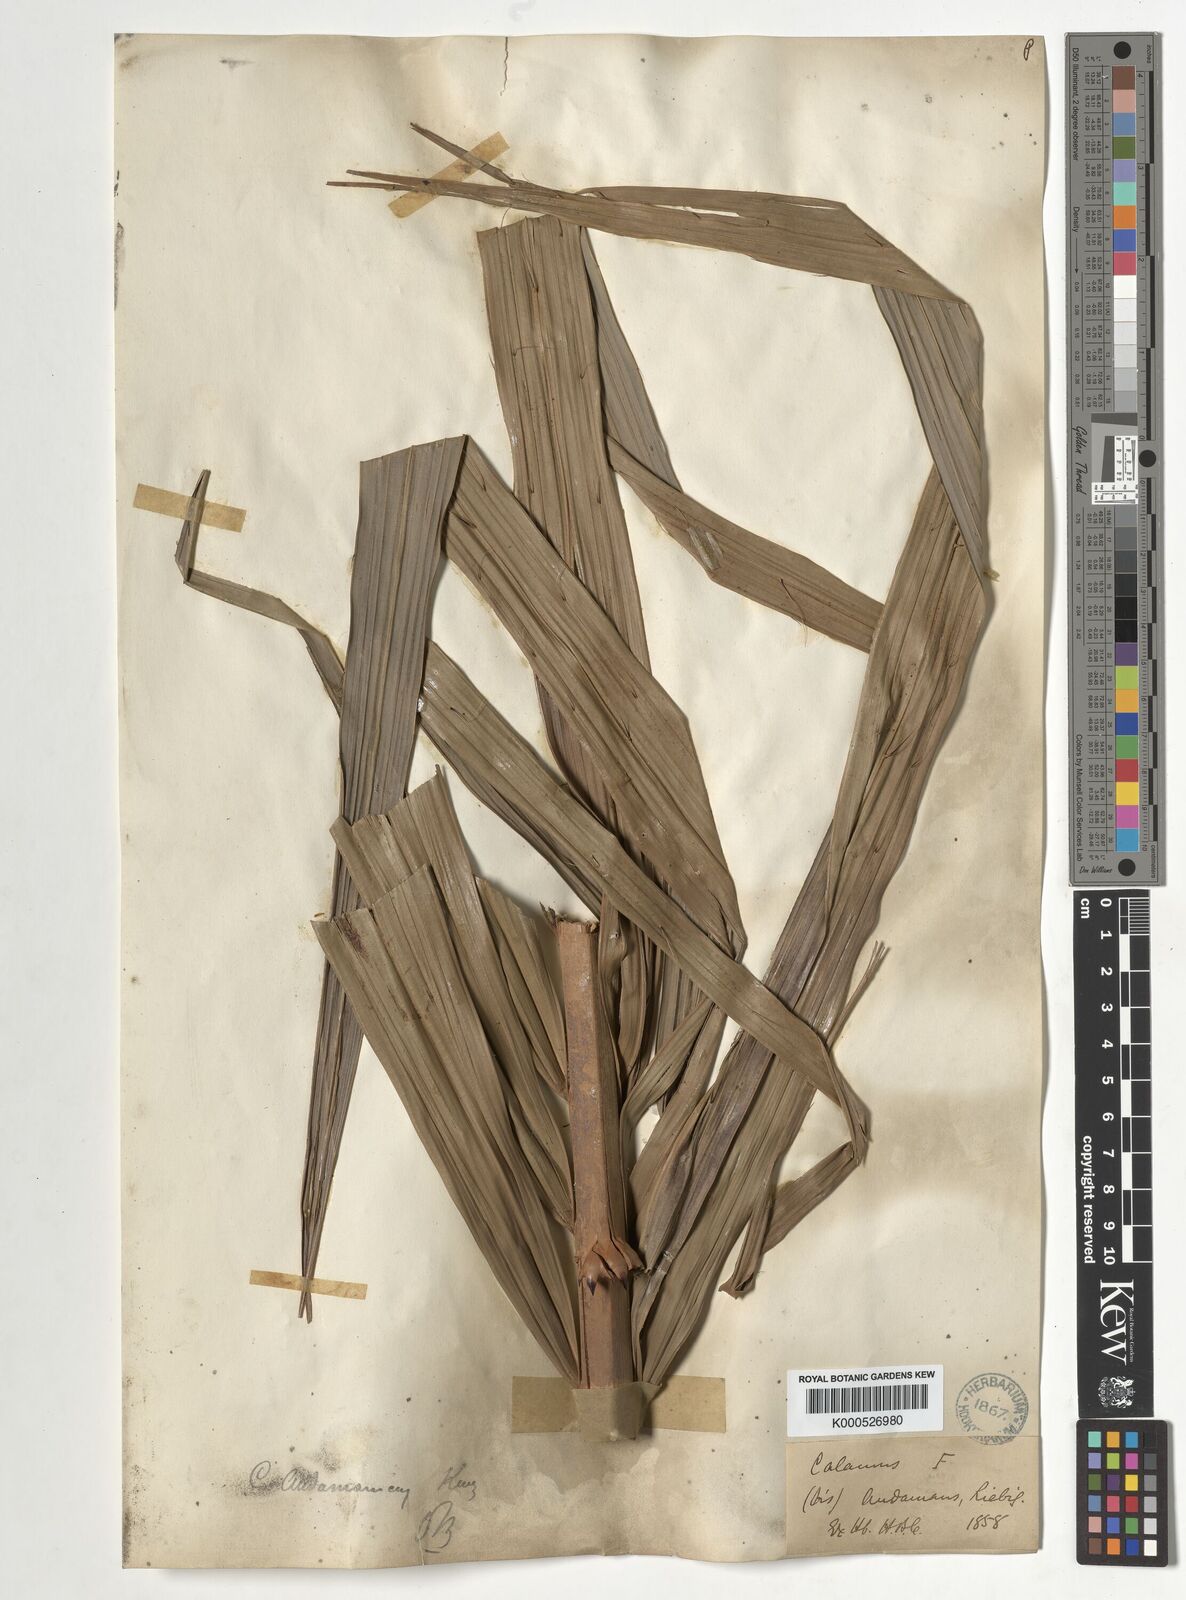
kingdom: Plantae
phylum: Tracheophyta
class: Liliopsida
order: Arecales
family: Arecaceae
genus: Calamus
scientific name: Calamus andamanicus
